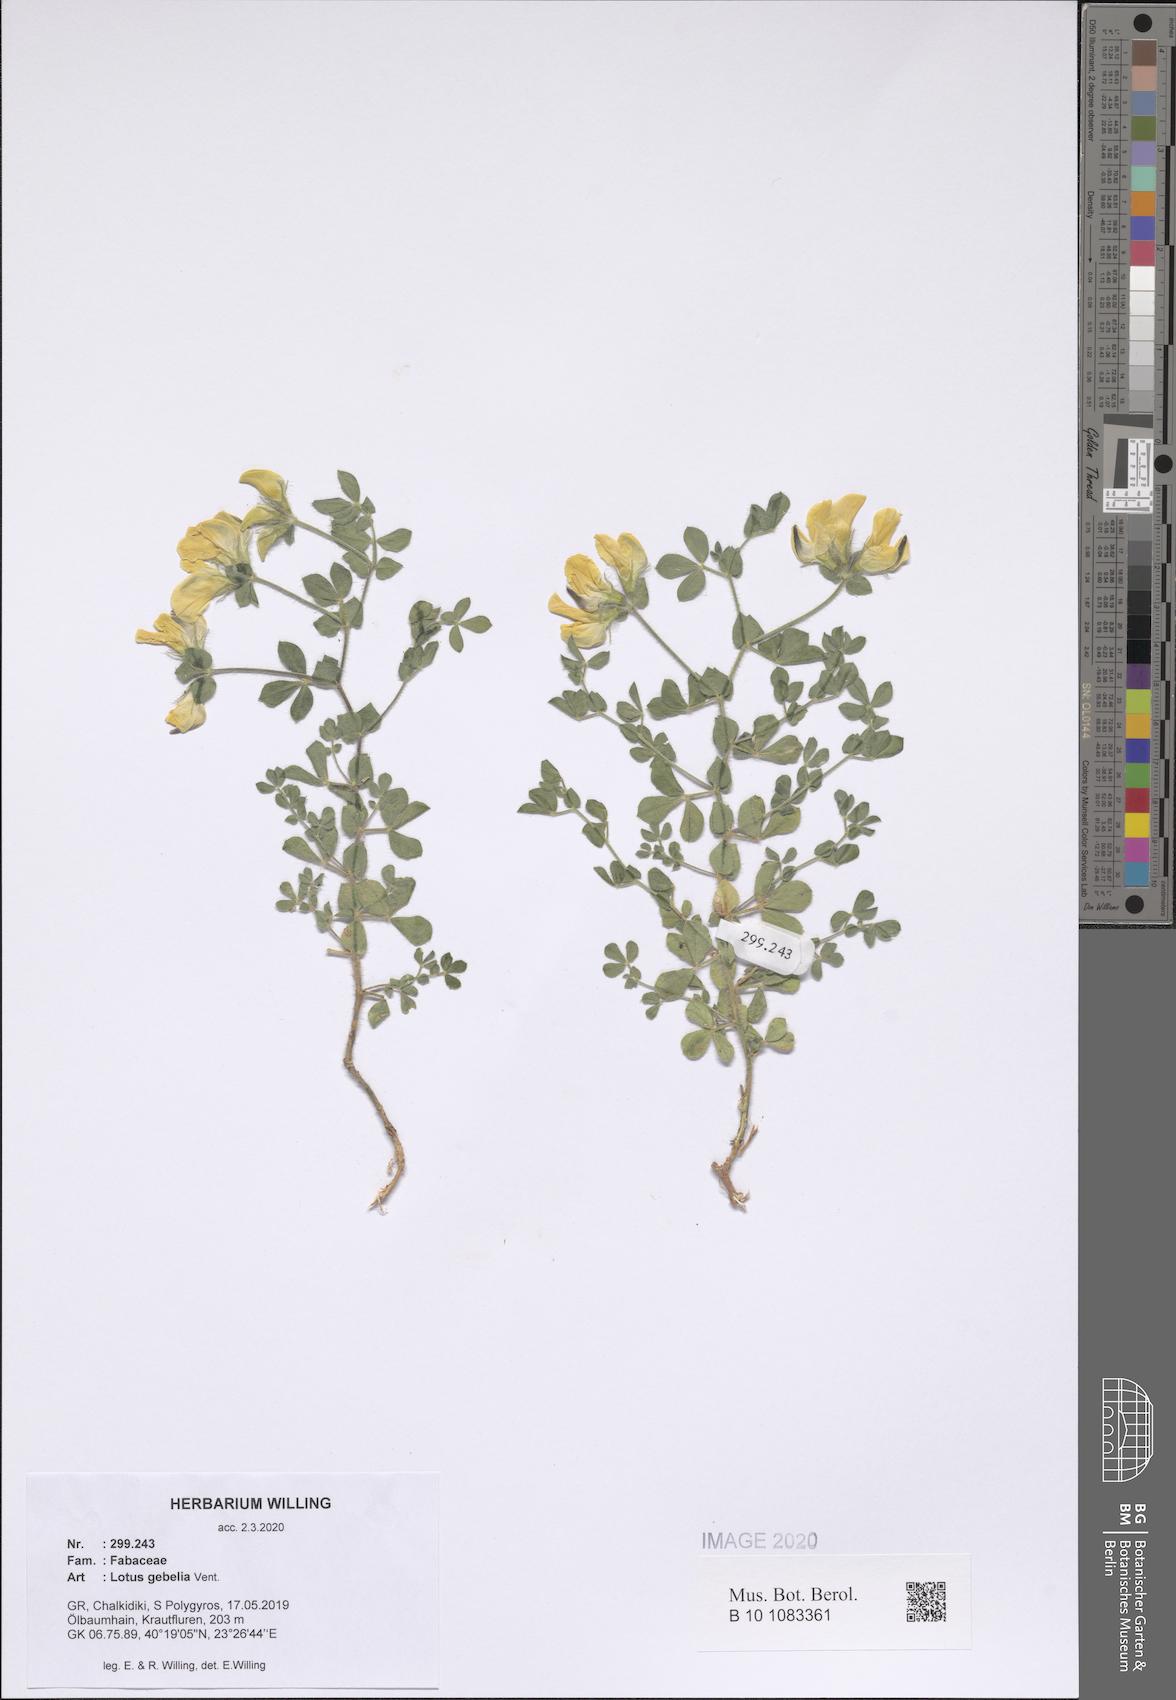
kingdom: Plantae
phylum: Tracheophyta
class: Magnoliopsida
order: Fabales
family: Fabaceae
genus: Lotus
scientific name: Lotus gebelia
